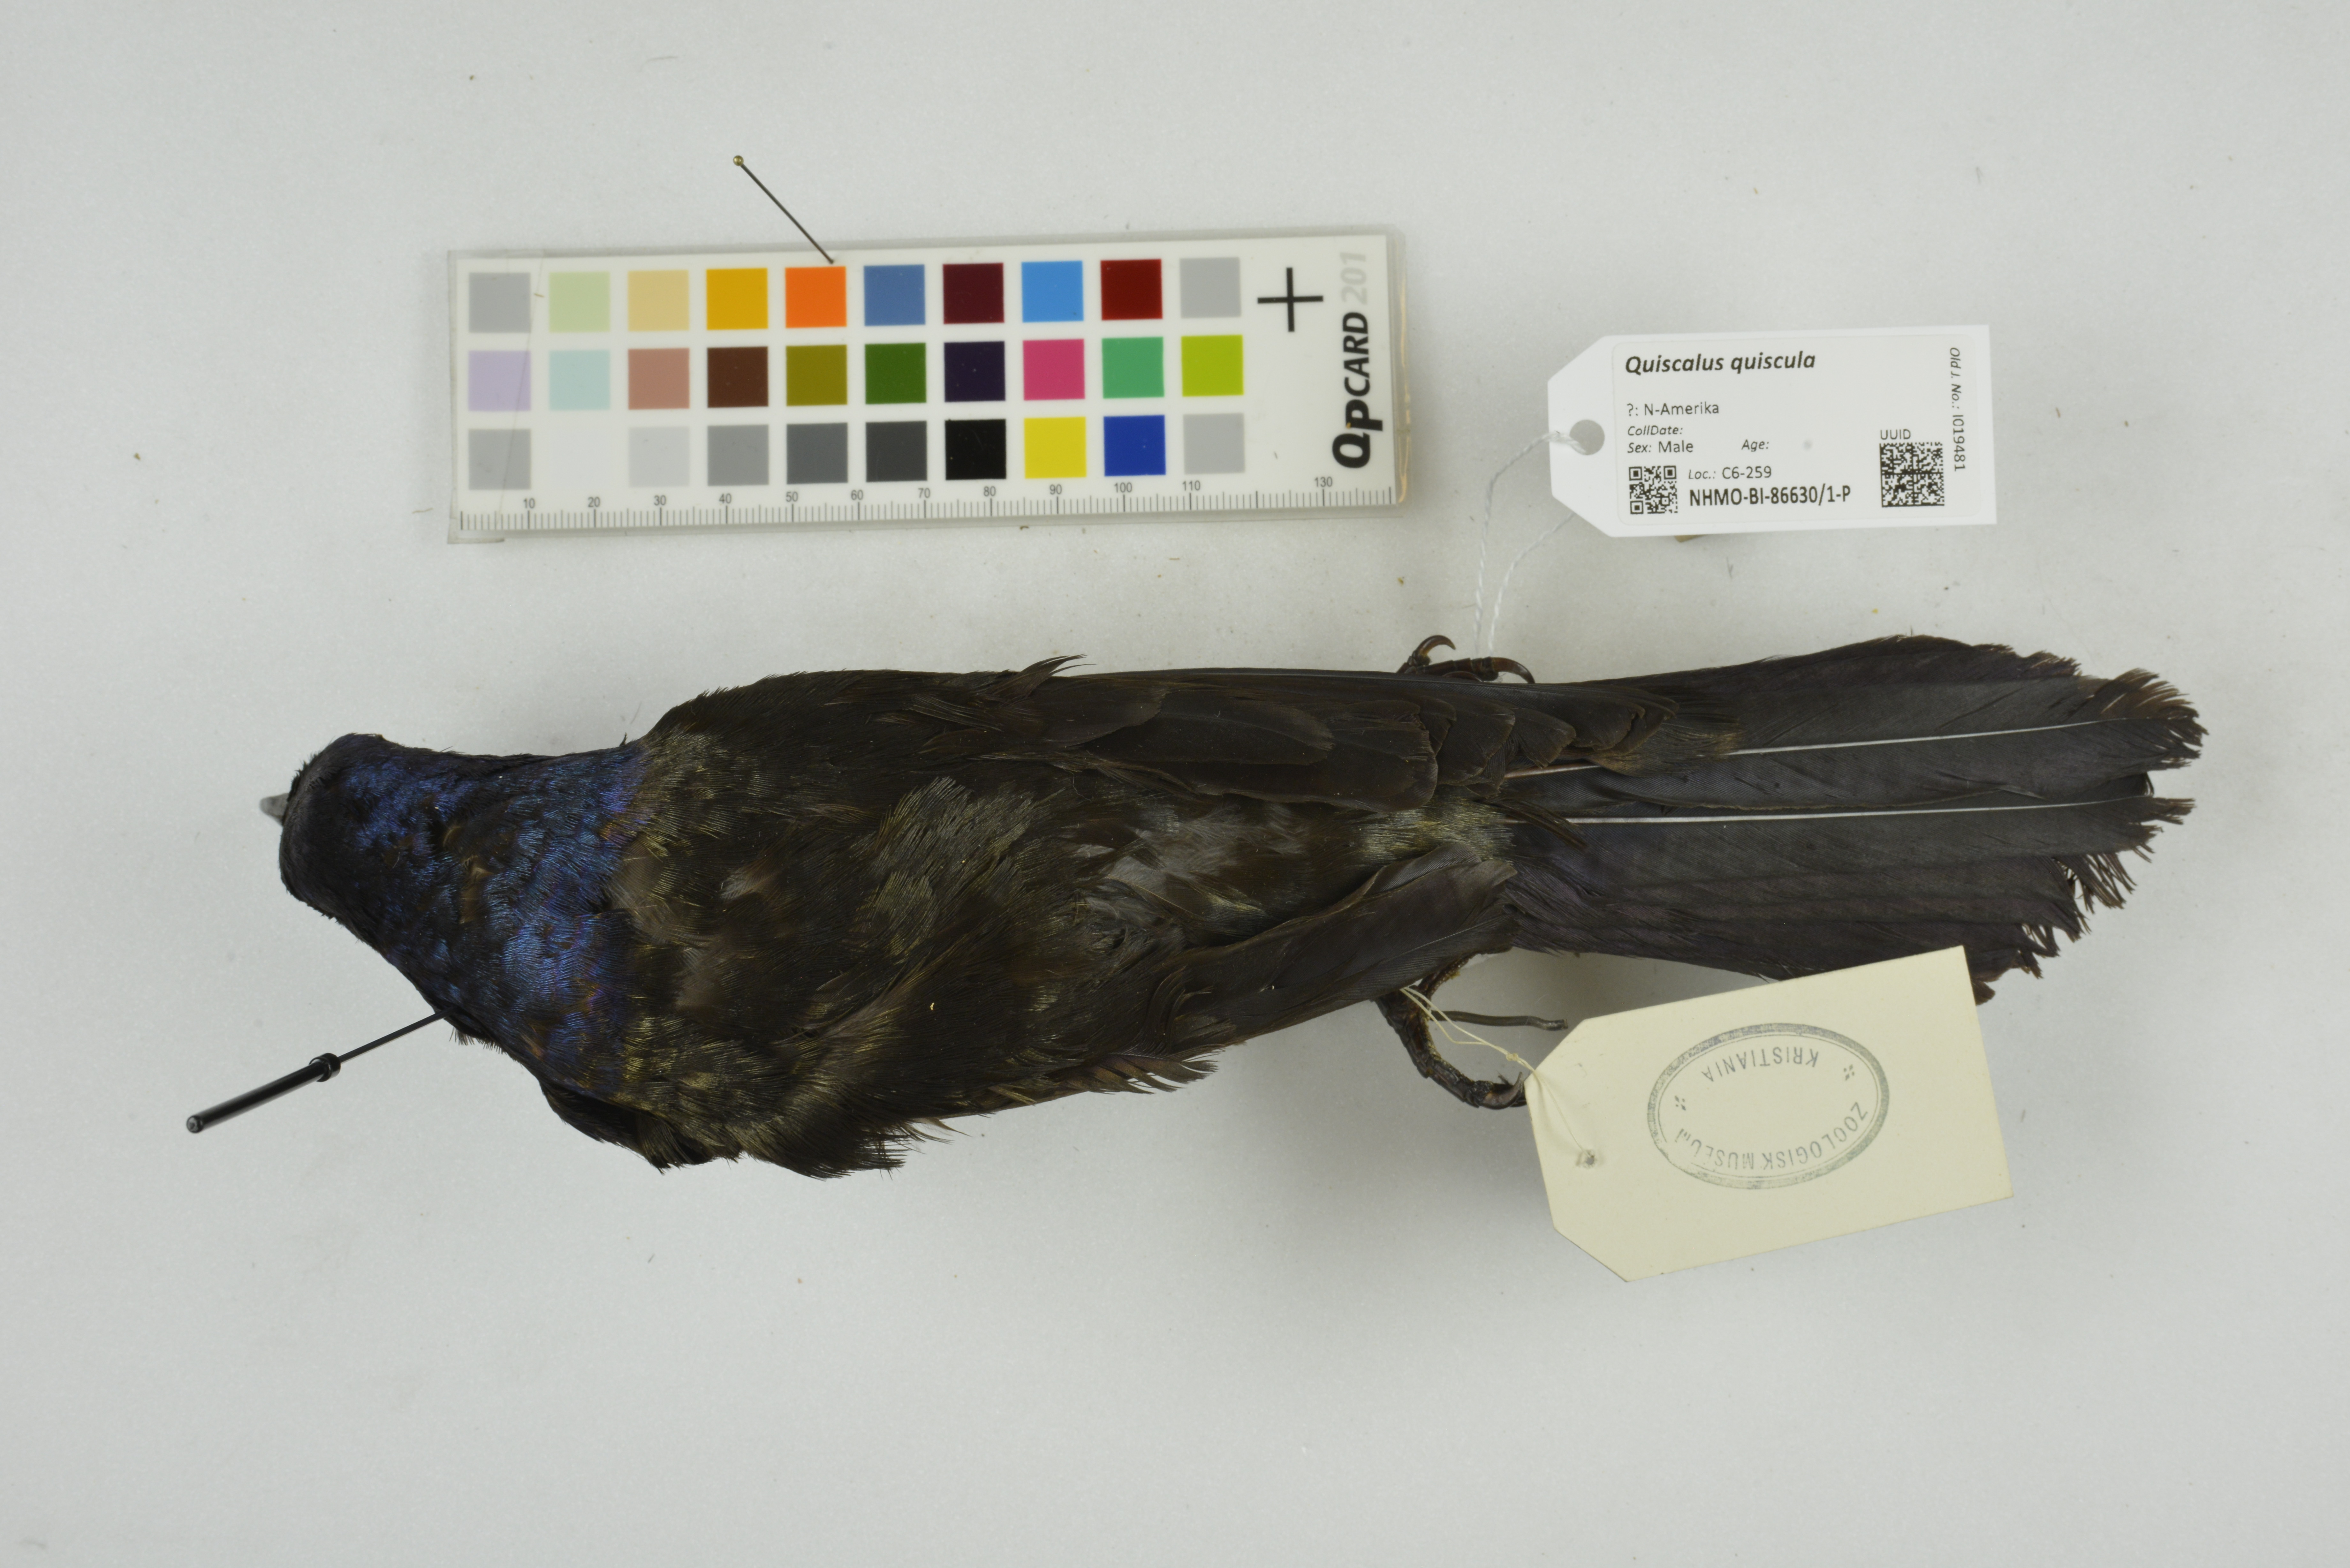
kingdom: Animalia
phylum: Chordata
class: Aves
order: Passeriformes
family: Icteridae
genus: Quiscalus
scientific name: Quiscalus quiscula
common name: Common grackle
